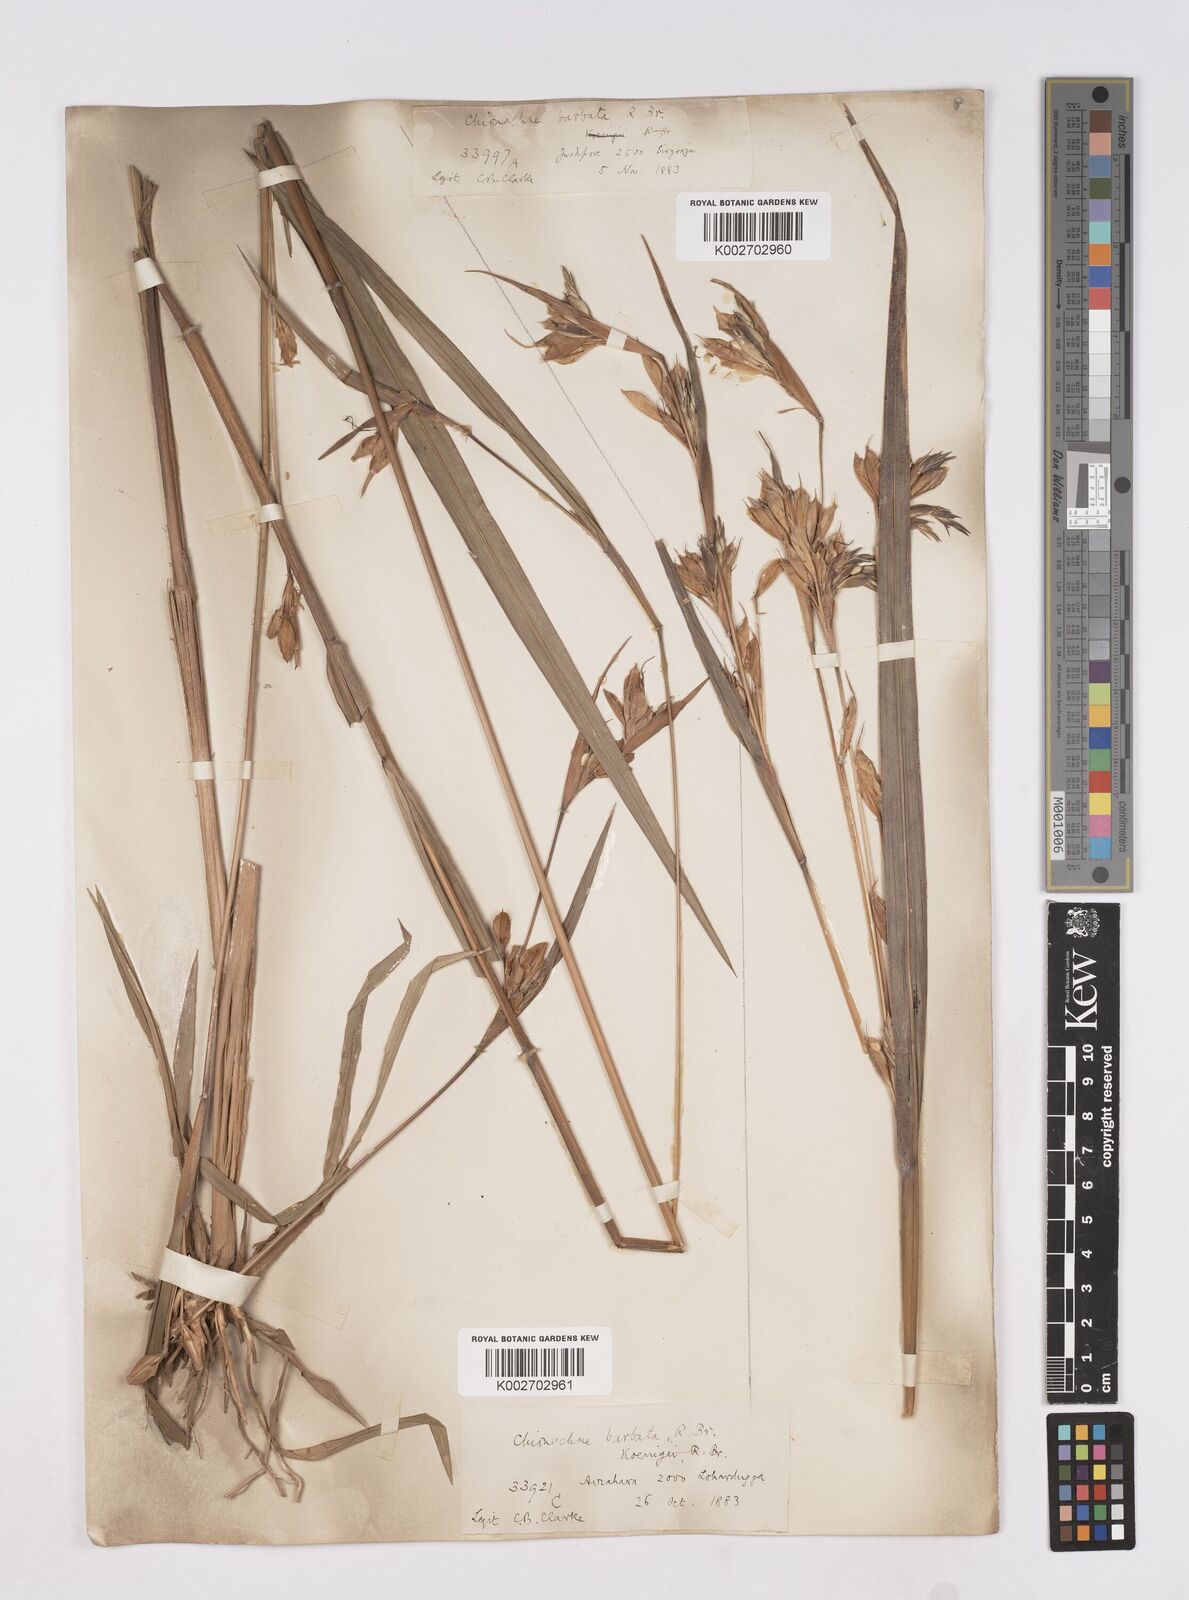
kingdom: Plantae
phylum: Tracheophyta
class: Liliopsida
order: Poales
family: Poaceae
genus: Polytoca
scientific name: Polytoca gigantea
